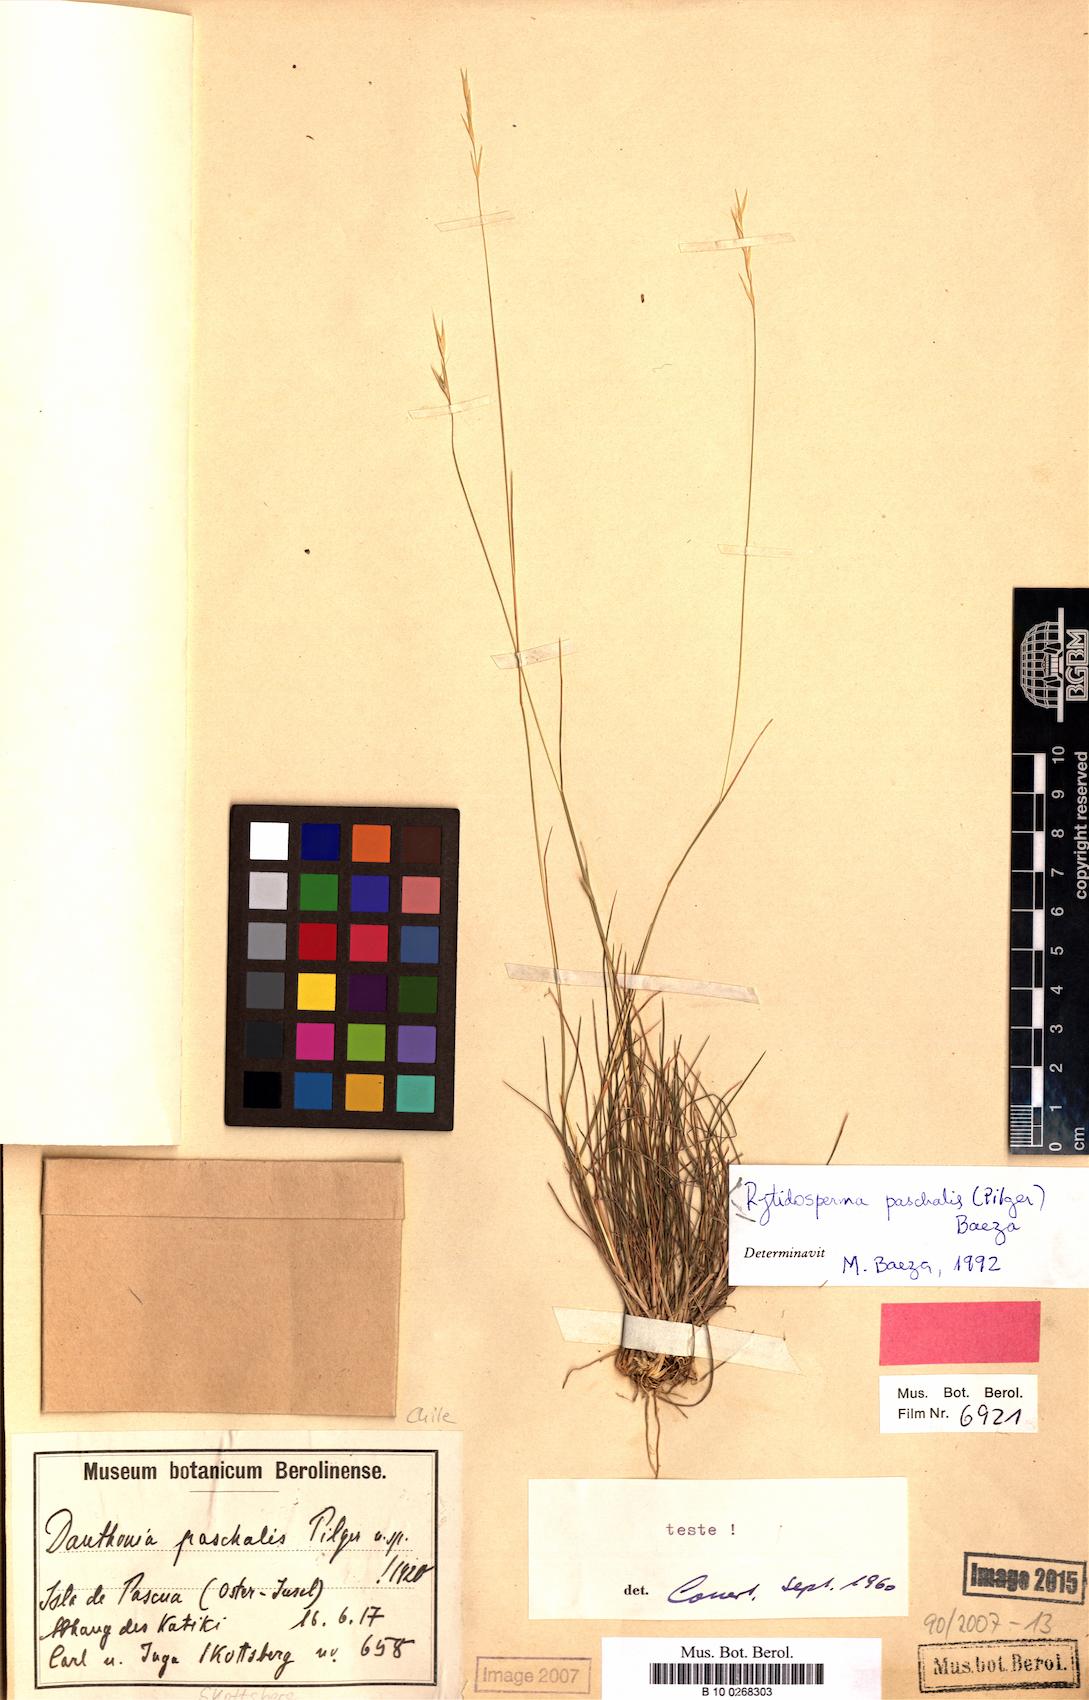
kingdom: Plantae
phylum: Tracheophyta
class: Liliopsida
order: Poales
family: Poaceae
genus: Rytidosperma
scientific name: Rytidosperma paschale
